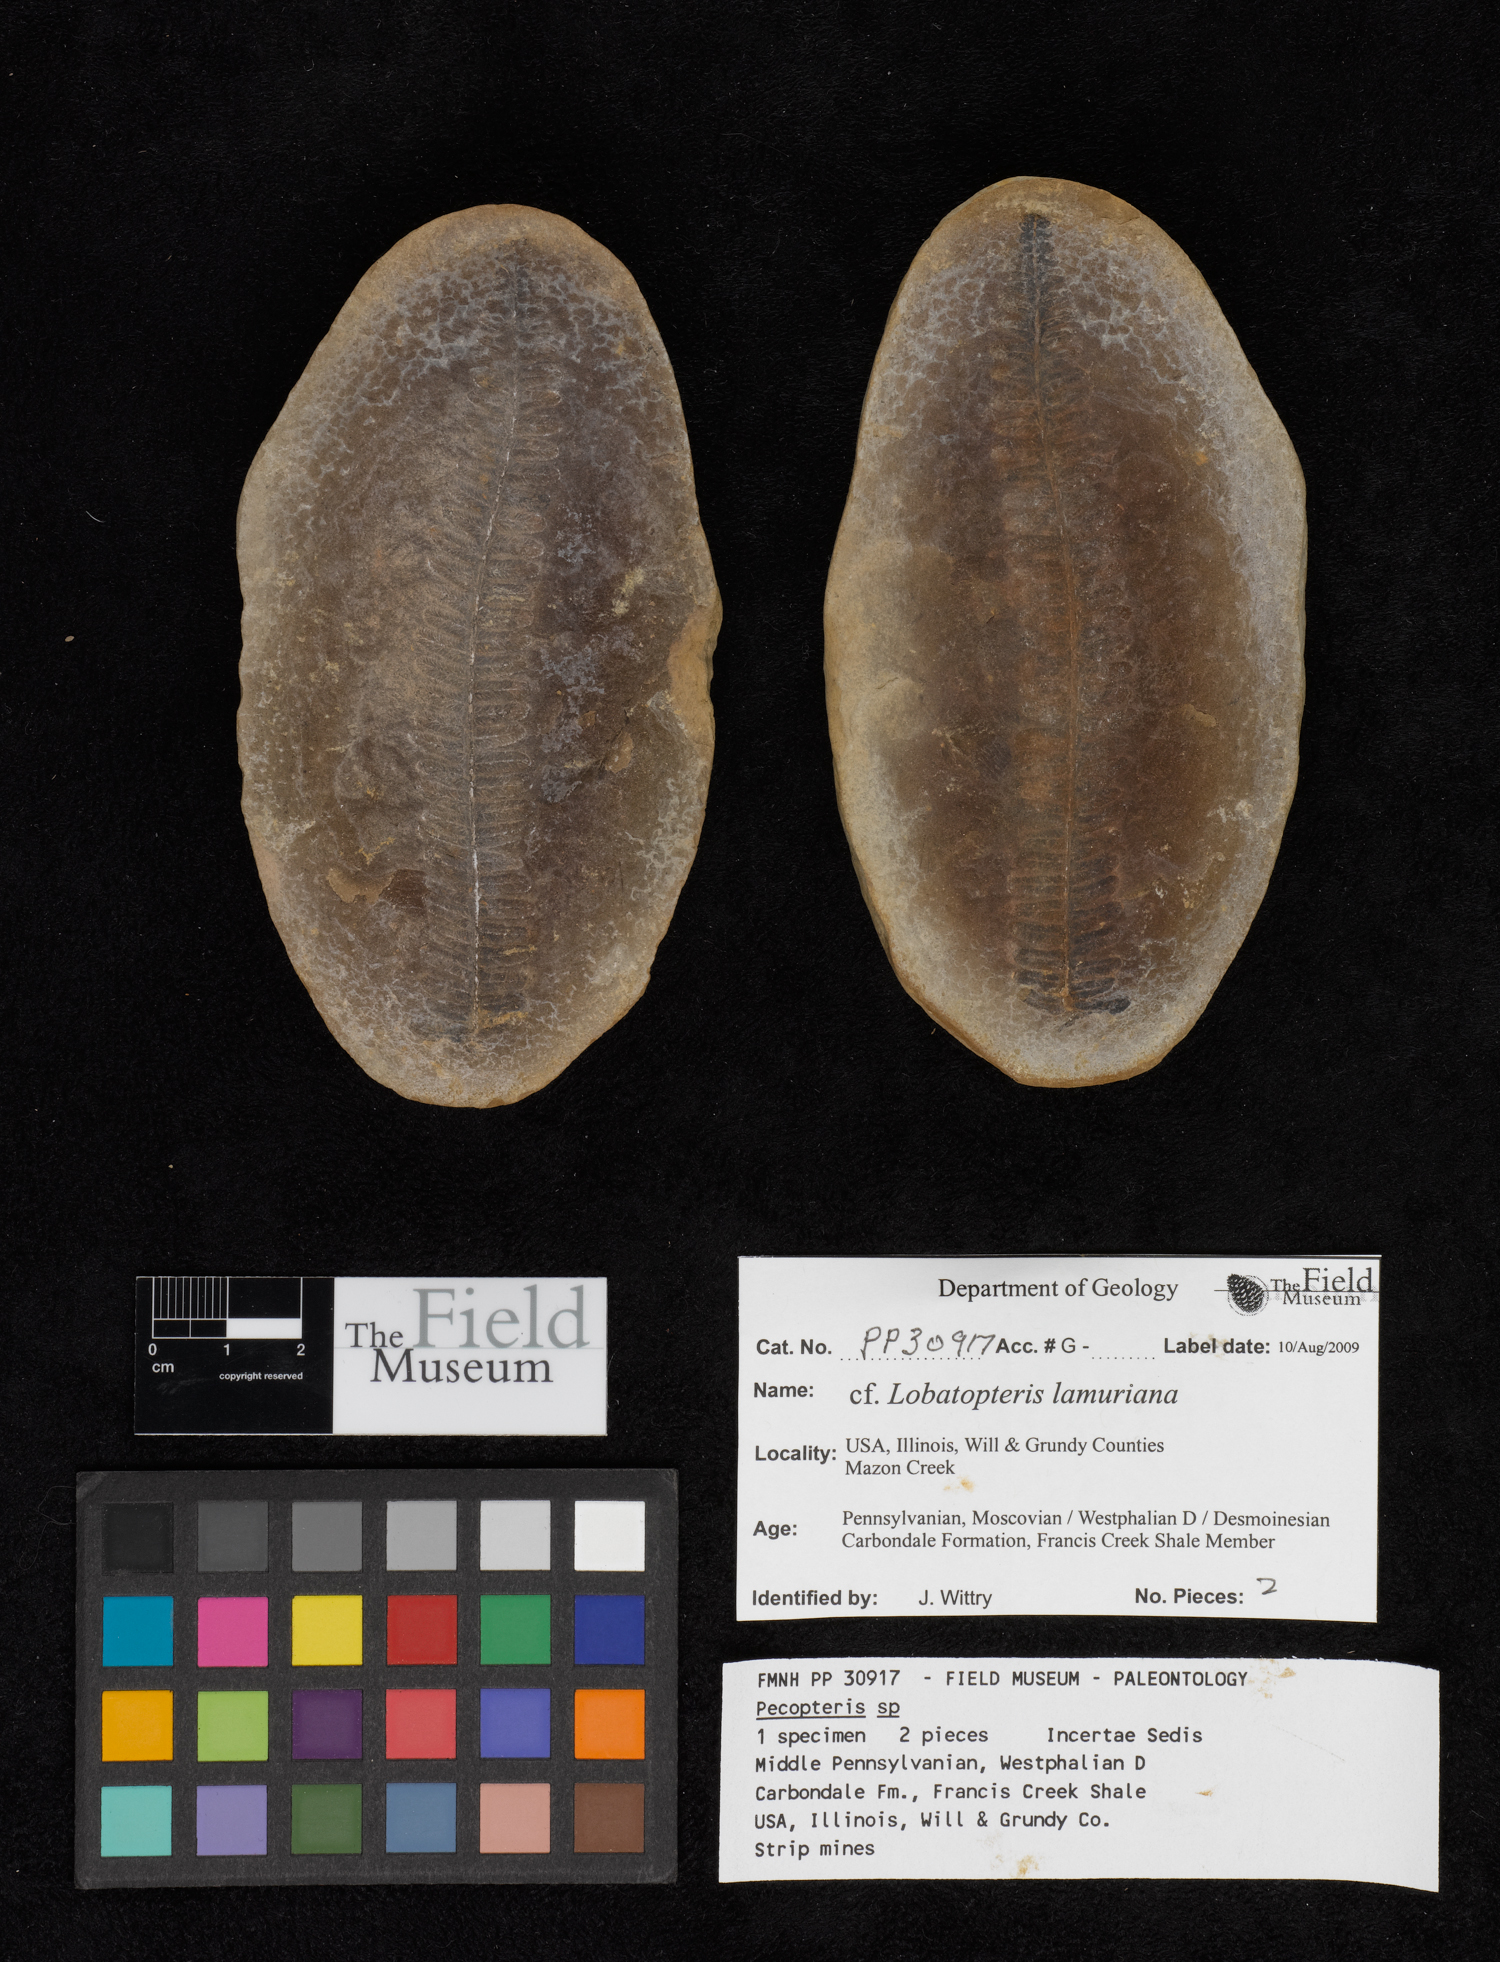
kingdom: Plantae
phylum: Tracheophyta
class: Polypodiopsida
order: Marattiales
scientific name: Marattiales
